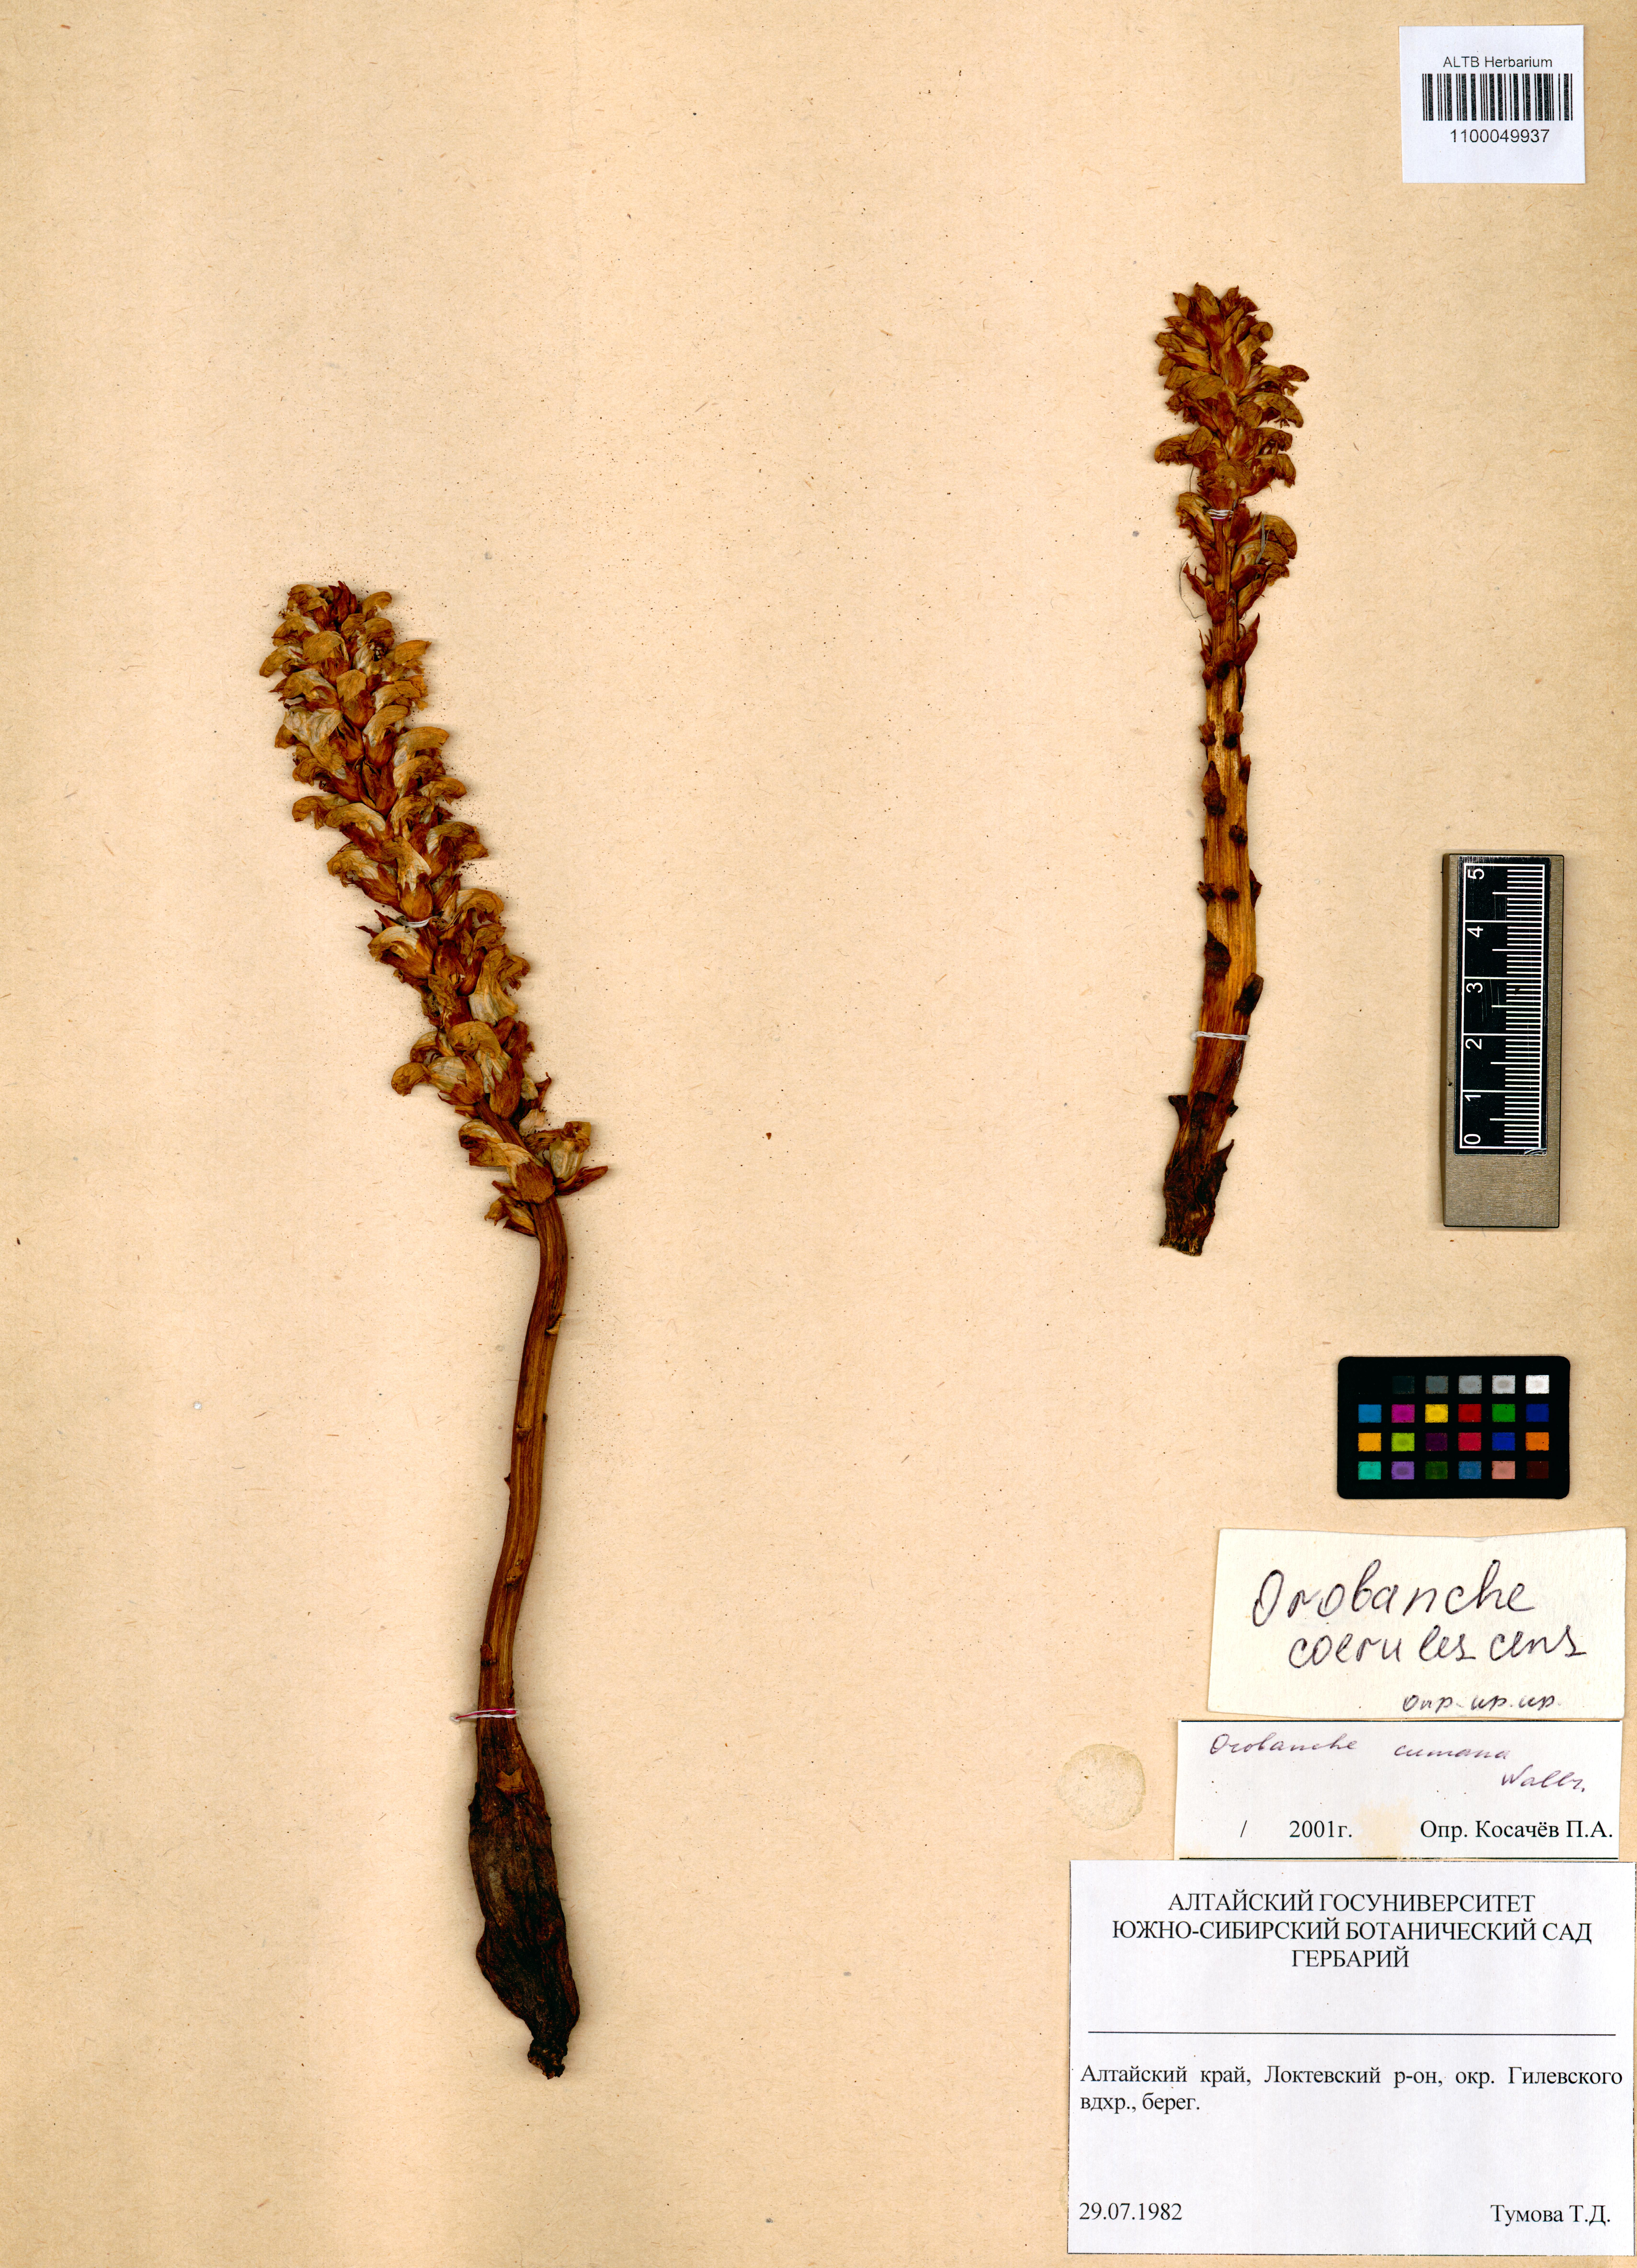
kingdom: Plantae
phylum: Tracheophyta
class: Magnoliopsida
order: Lamiales
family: Orobanchaceae
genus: Orobanche
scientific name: Orobanche cumana
